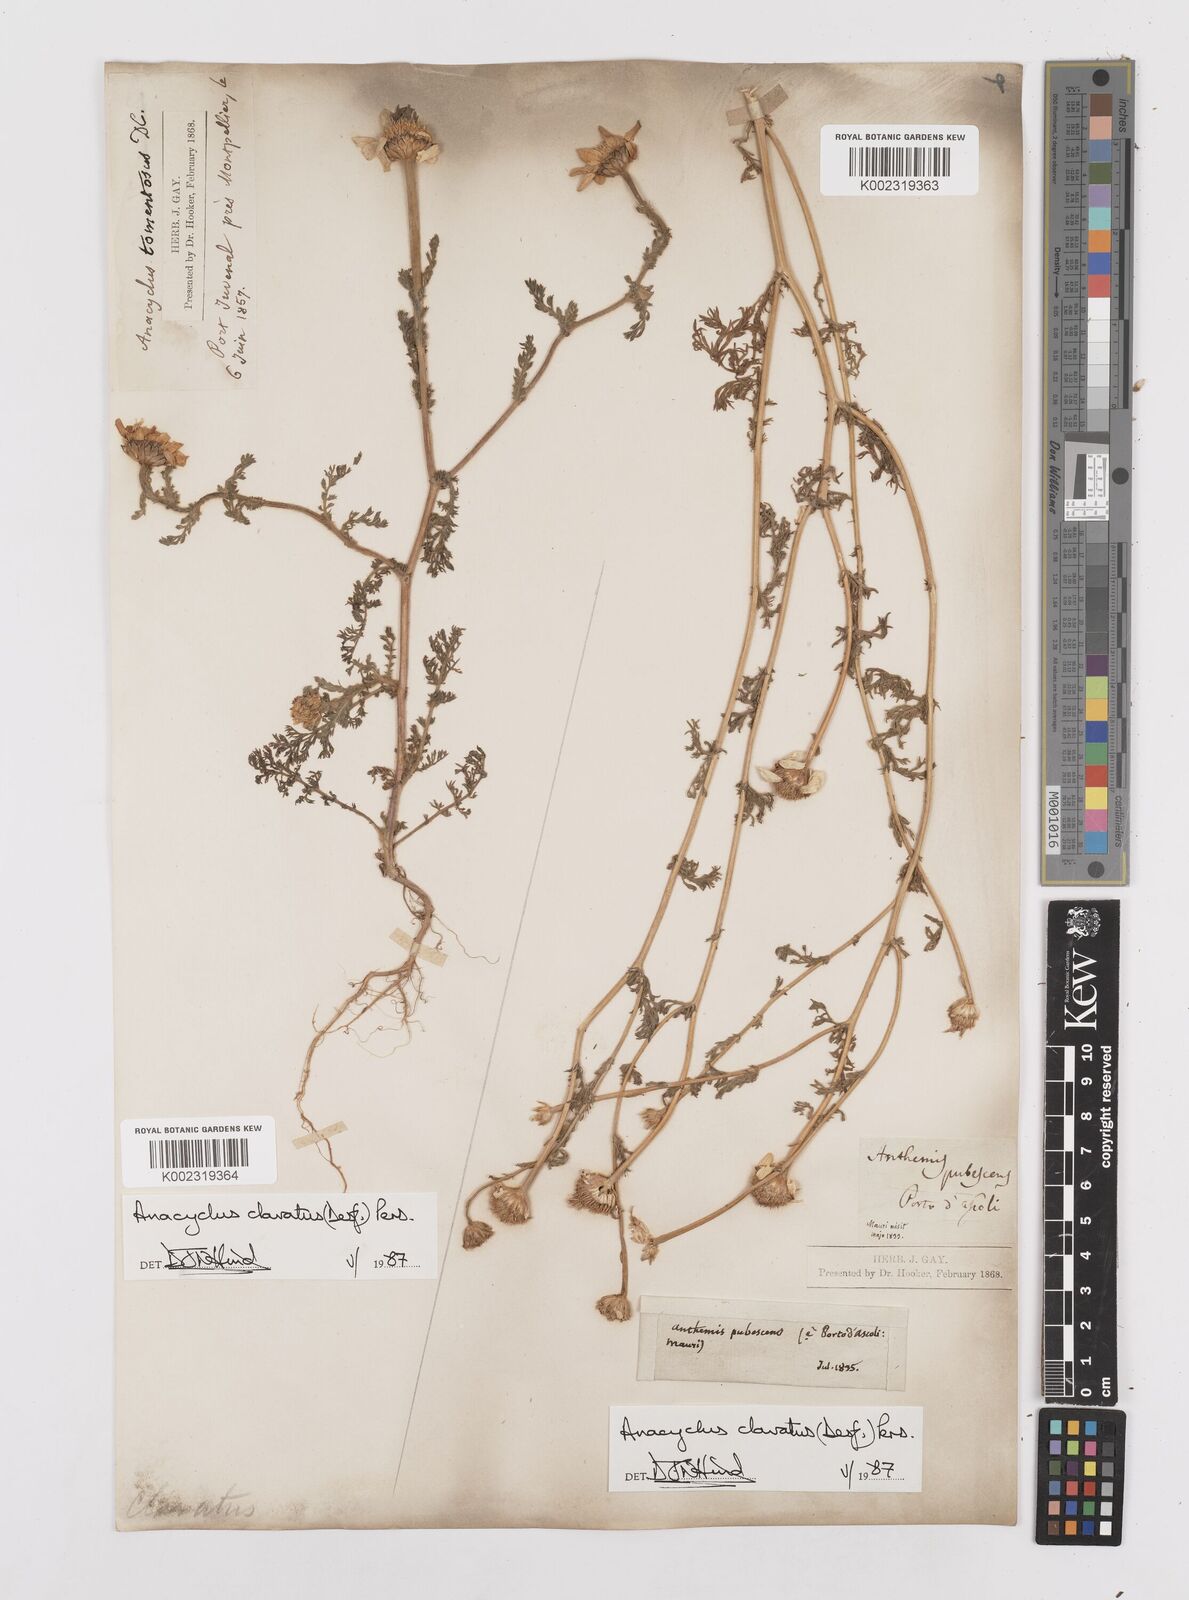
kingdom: Plantae
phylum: Tracheophyta
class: Magnoliopsida
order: Asterales
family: Asteraceae
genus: Anacyclus
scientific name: Anacyclus clavatus
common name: Whitebuttons
